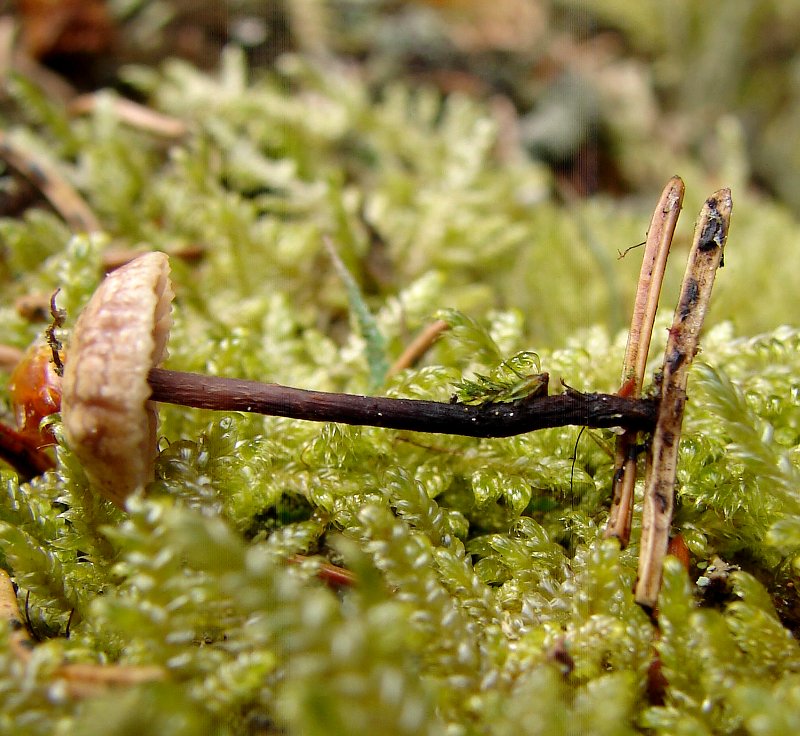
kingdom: Fungi
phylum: Basidiomycota
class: Agaricomycetes
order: Agaricales
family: Omphalotaceae
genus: Paragymnopus
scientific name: Paragymnopus perforans
